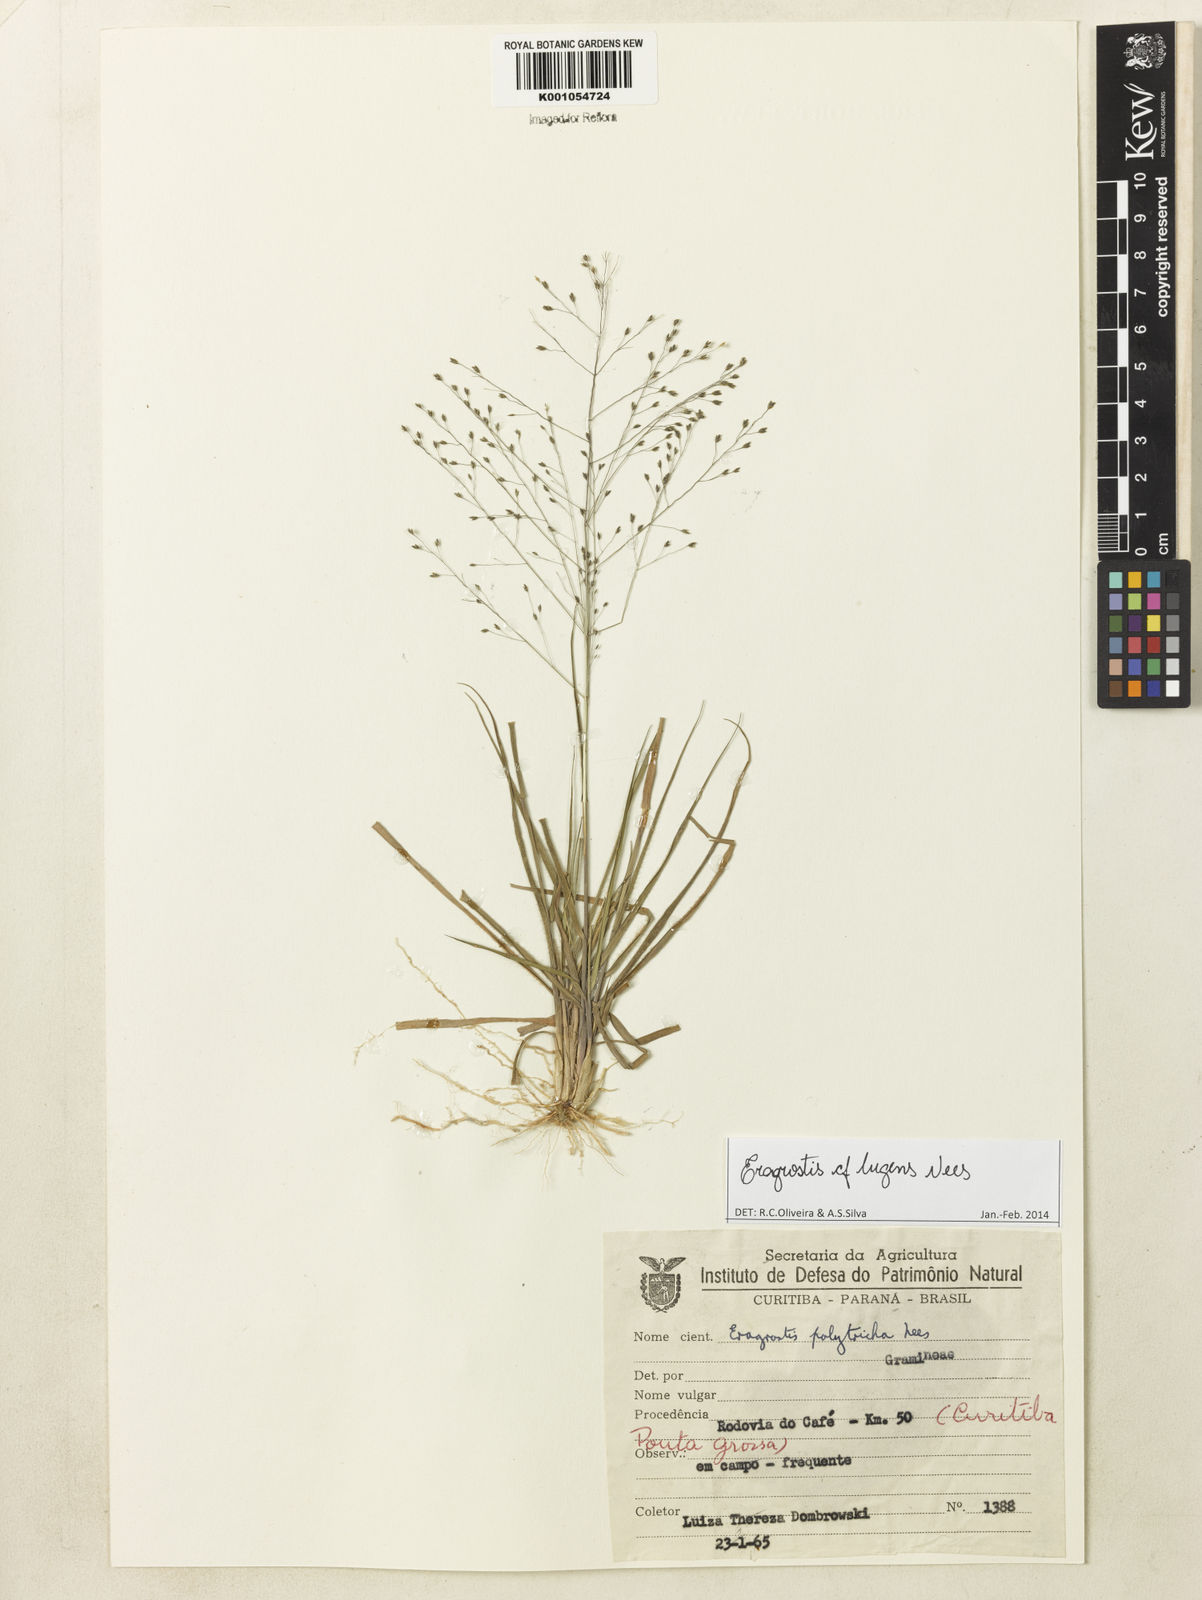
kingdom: Plantae
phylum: Tracheophyta
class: Liliopsida
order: Poales
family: Poaceae
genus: Eragrostis
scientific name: Eragrostis lugens
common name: Mourning love grass
